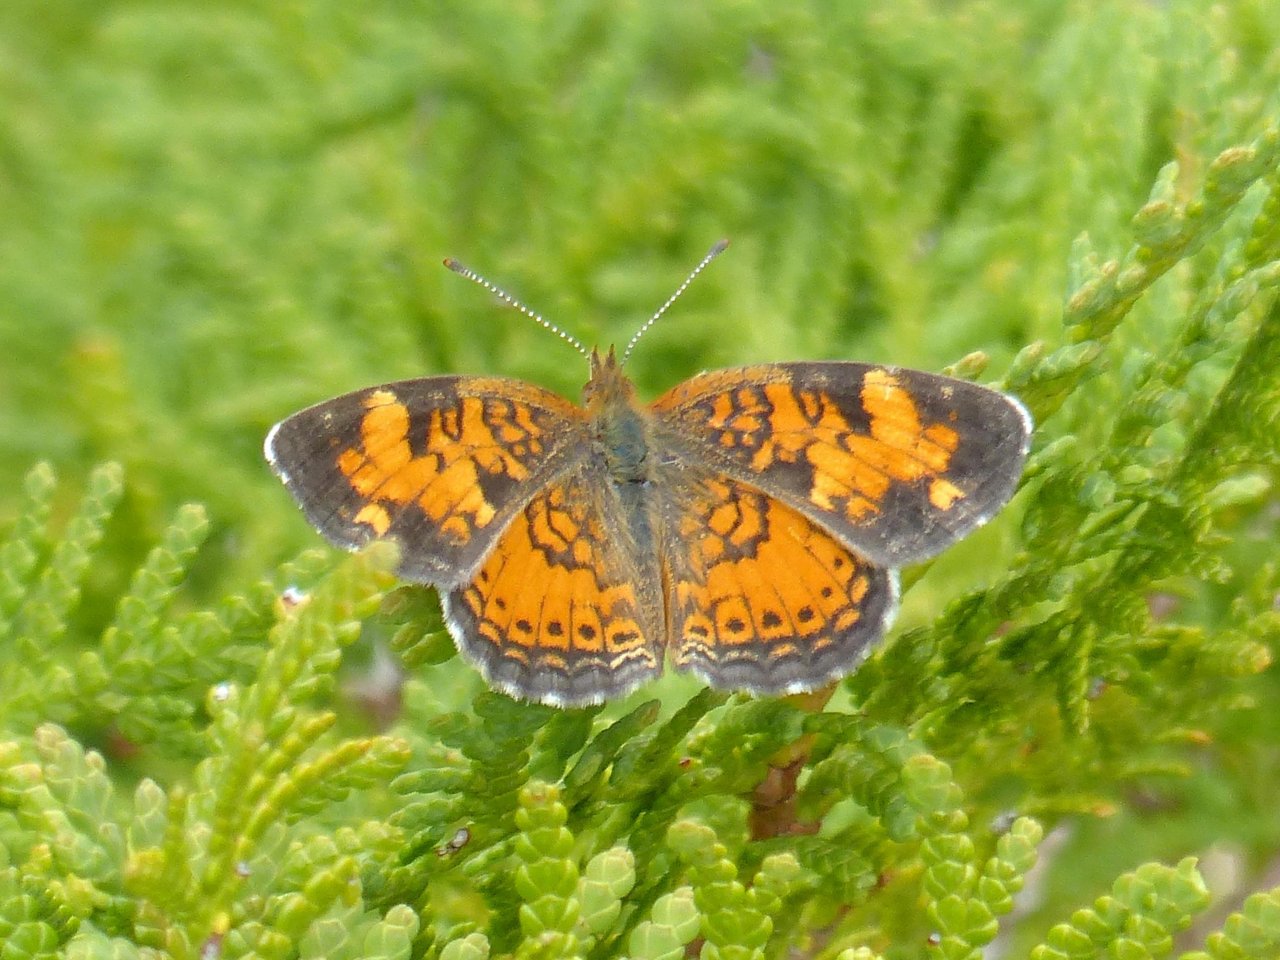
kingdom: Animalia
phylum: Arthropoda
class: Insecta
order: Lepidoptera
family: Nymphalidae
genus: Phyciodes
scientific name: Phyciodes tharos
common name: Northern Crescent
